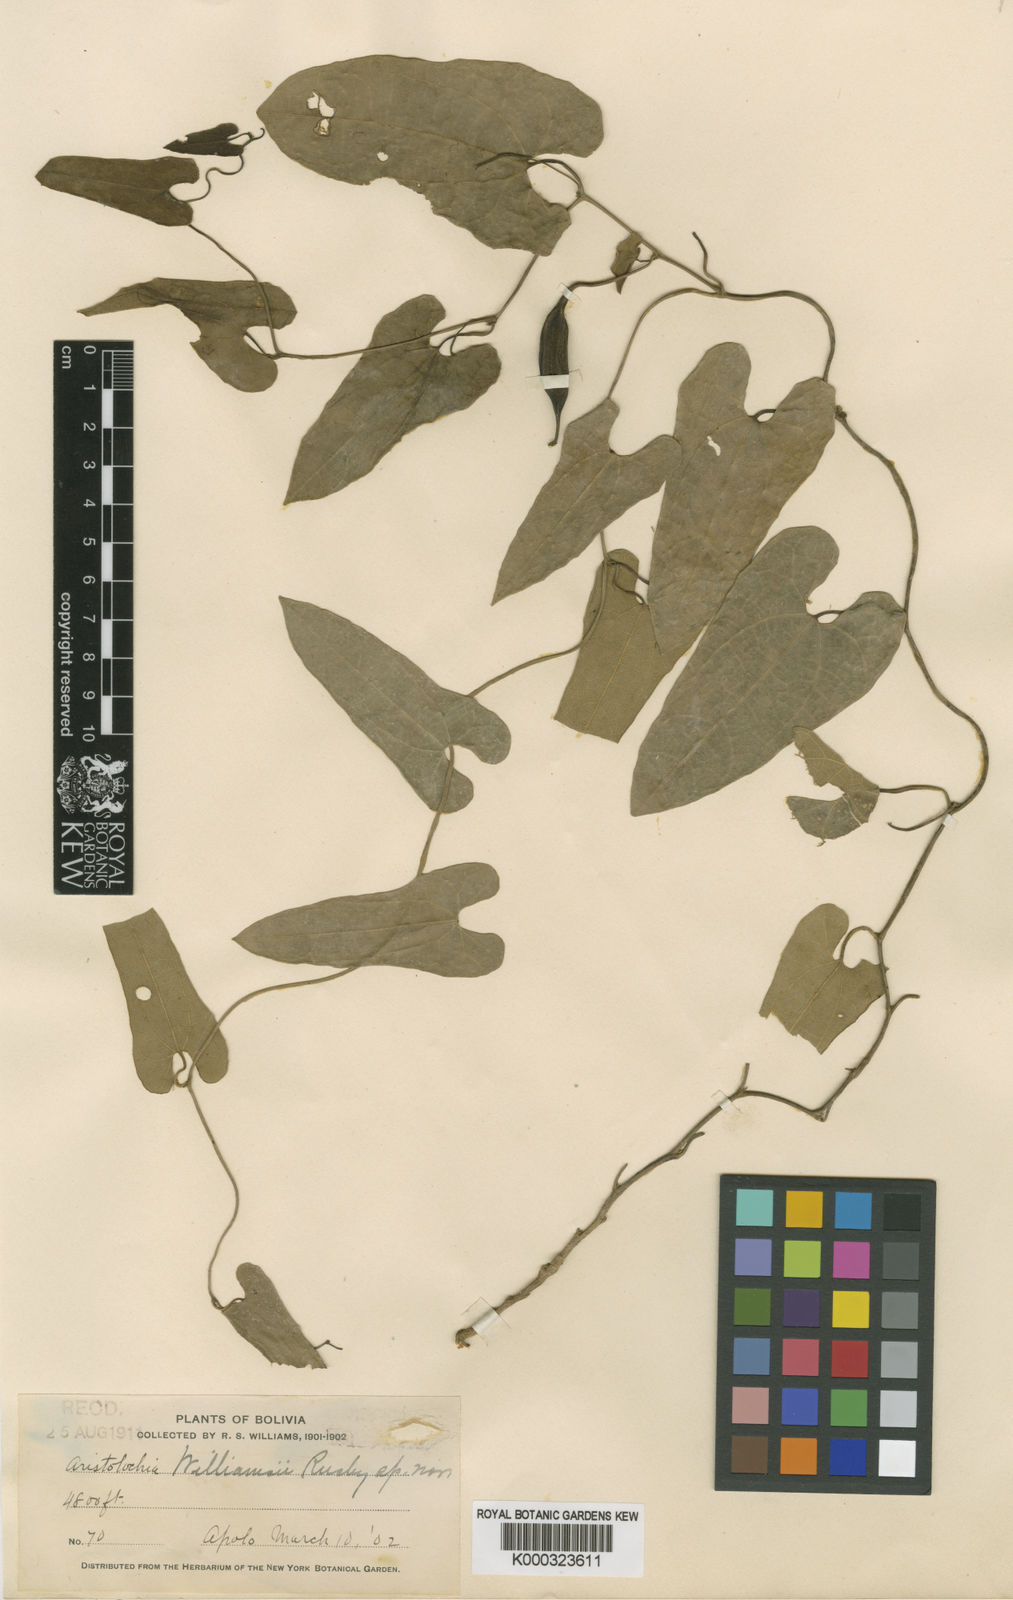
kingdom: Plantae
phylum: Tracheophyta
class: Magnoliopsida
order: Piperales
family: Aristolochiaceae
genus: Aristolochia
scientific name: Aristolochia mishuyacensis
